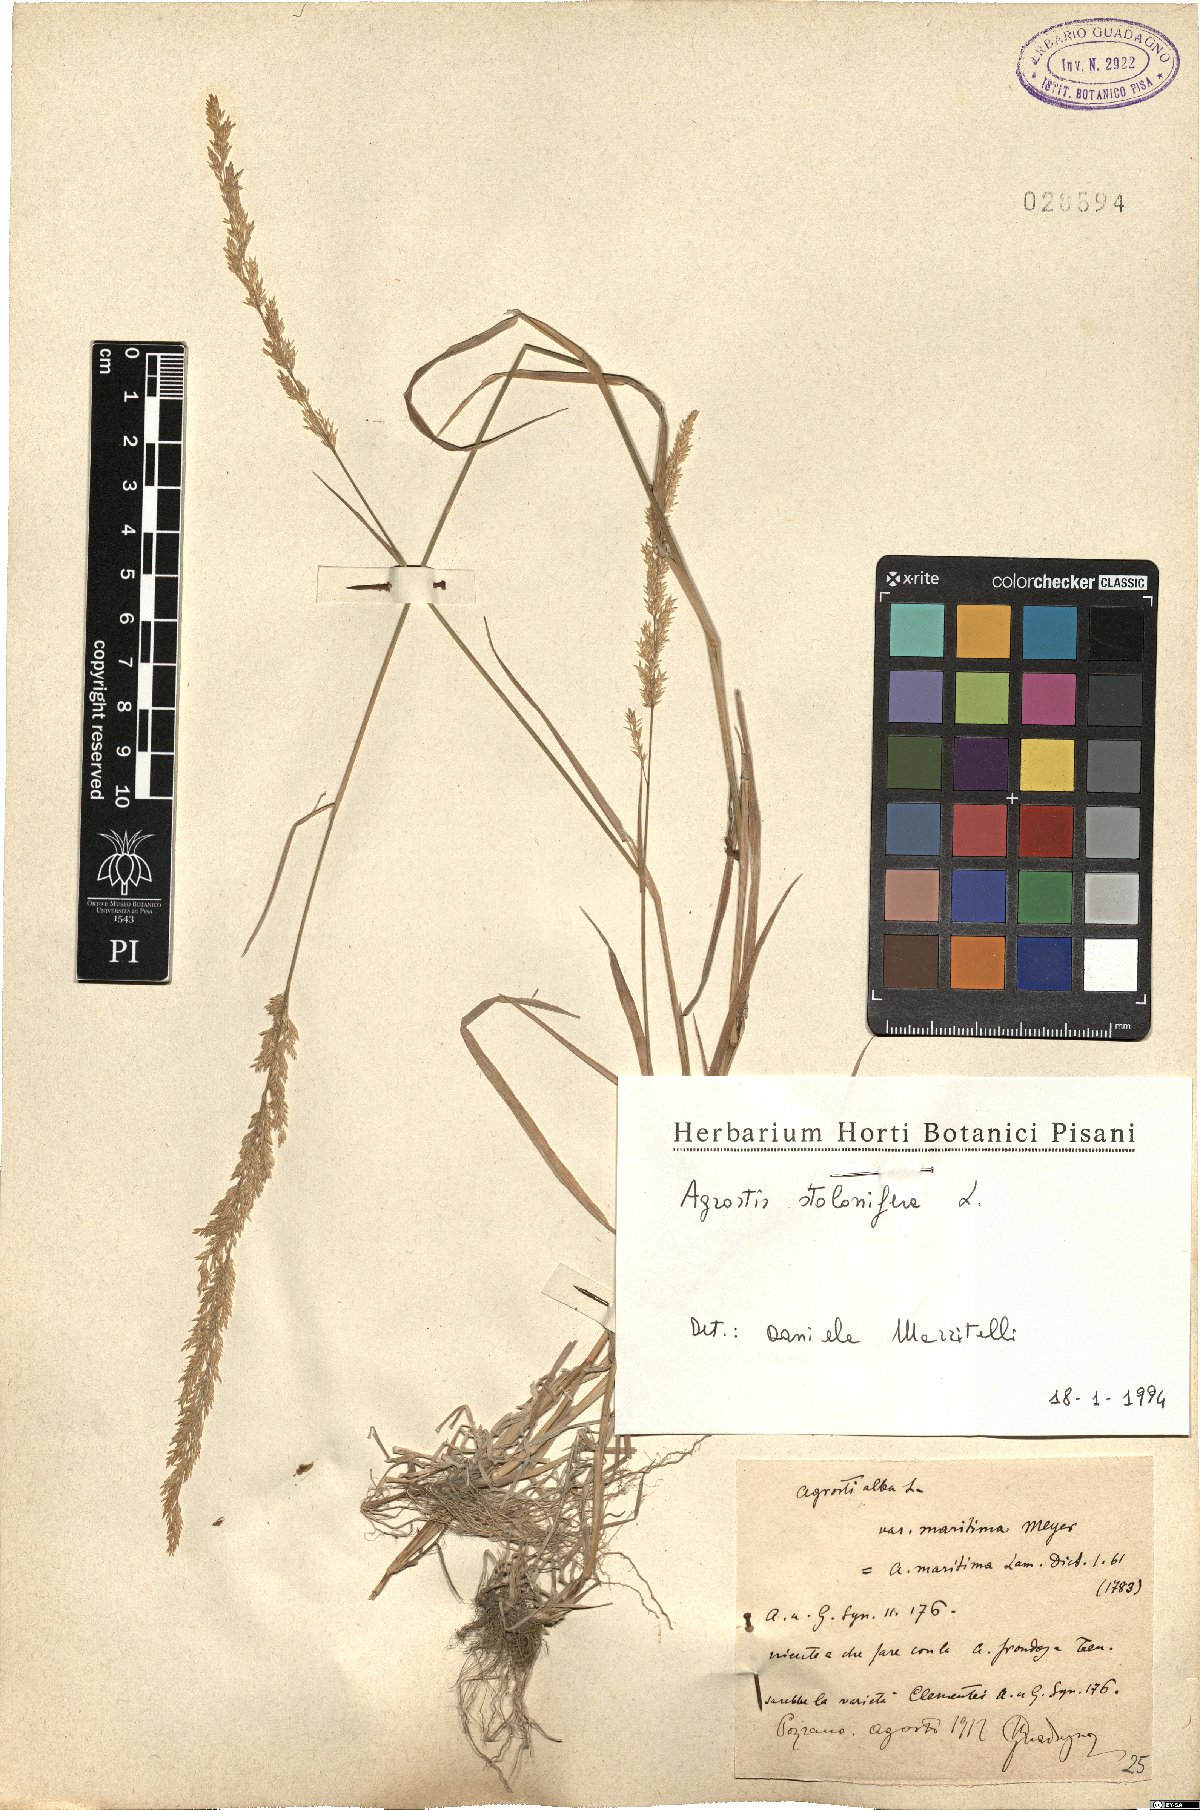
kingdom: Plantae
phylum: Tracheophyta
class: Liliopsida
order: Poales
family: Poaceae
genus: Agrostis
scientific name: Agrostis stolonifera
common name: Creeping bentgrass
